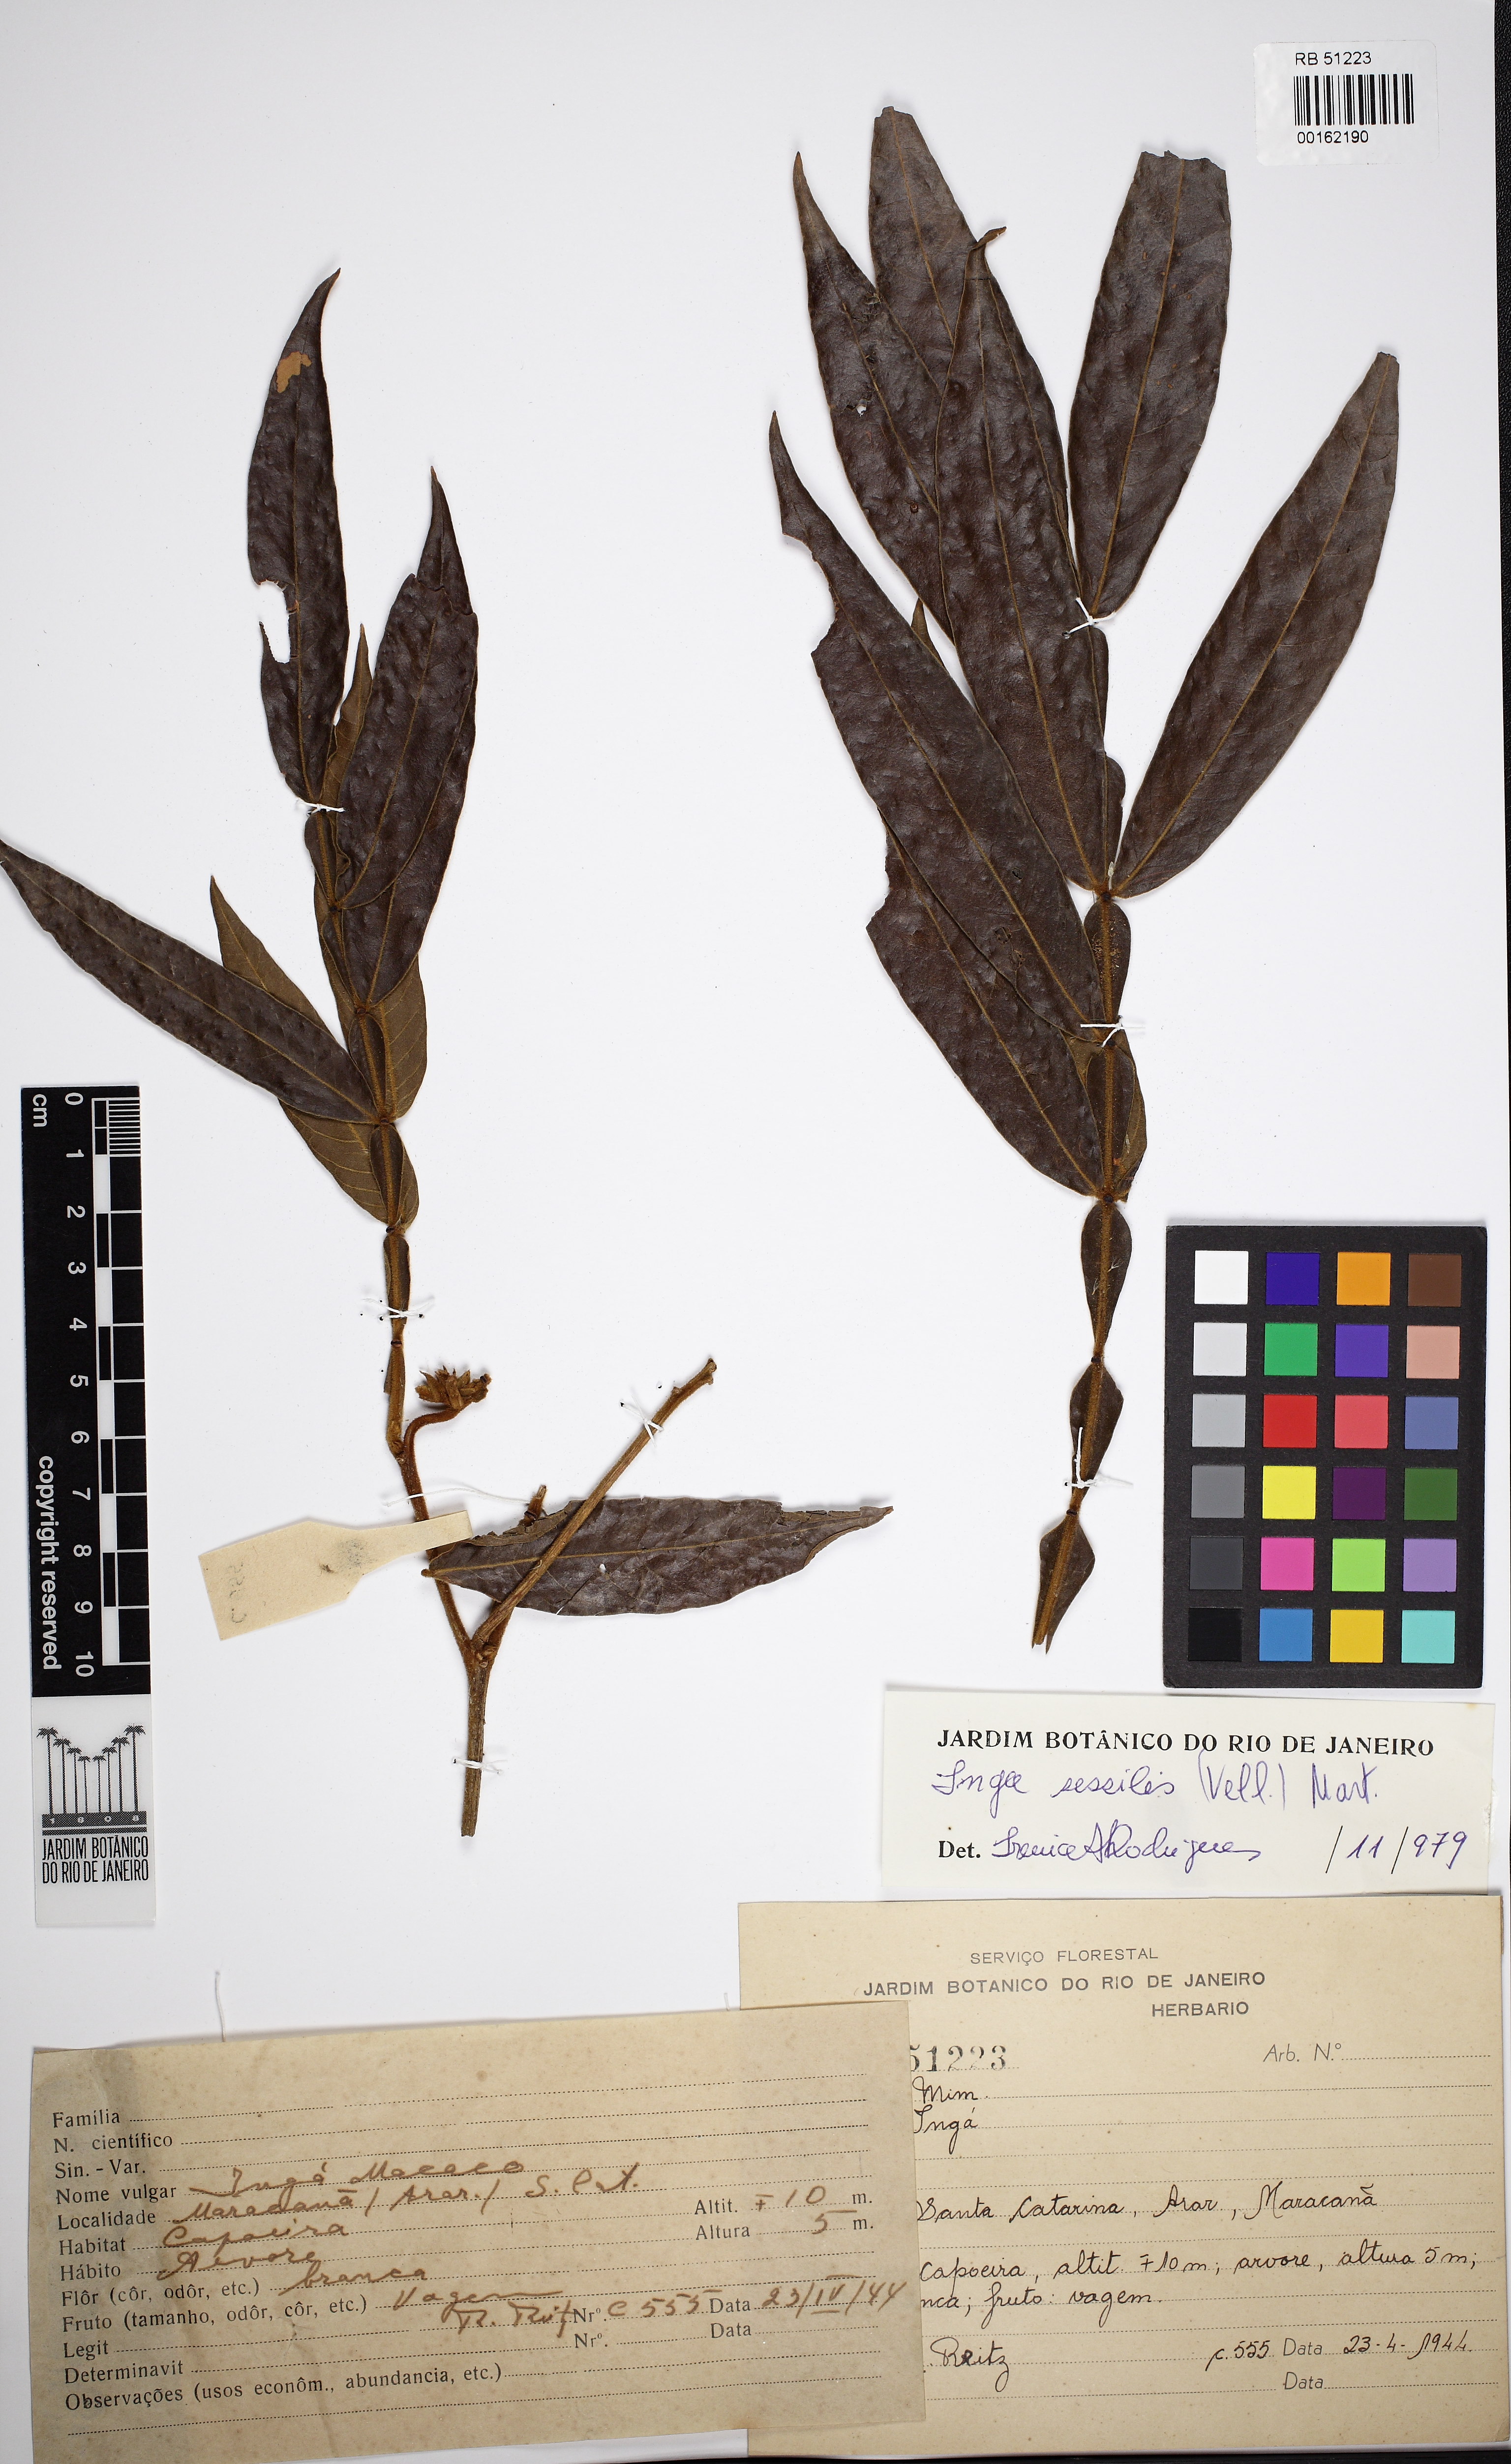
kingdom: Plantae
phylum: Tracheophyta
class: Magnoliopsida
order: Fabales
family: Fabaceae
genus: Inga
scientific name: Inga sessilis
